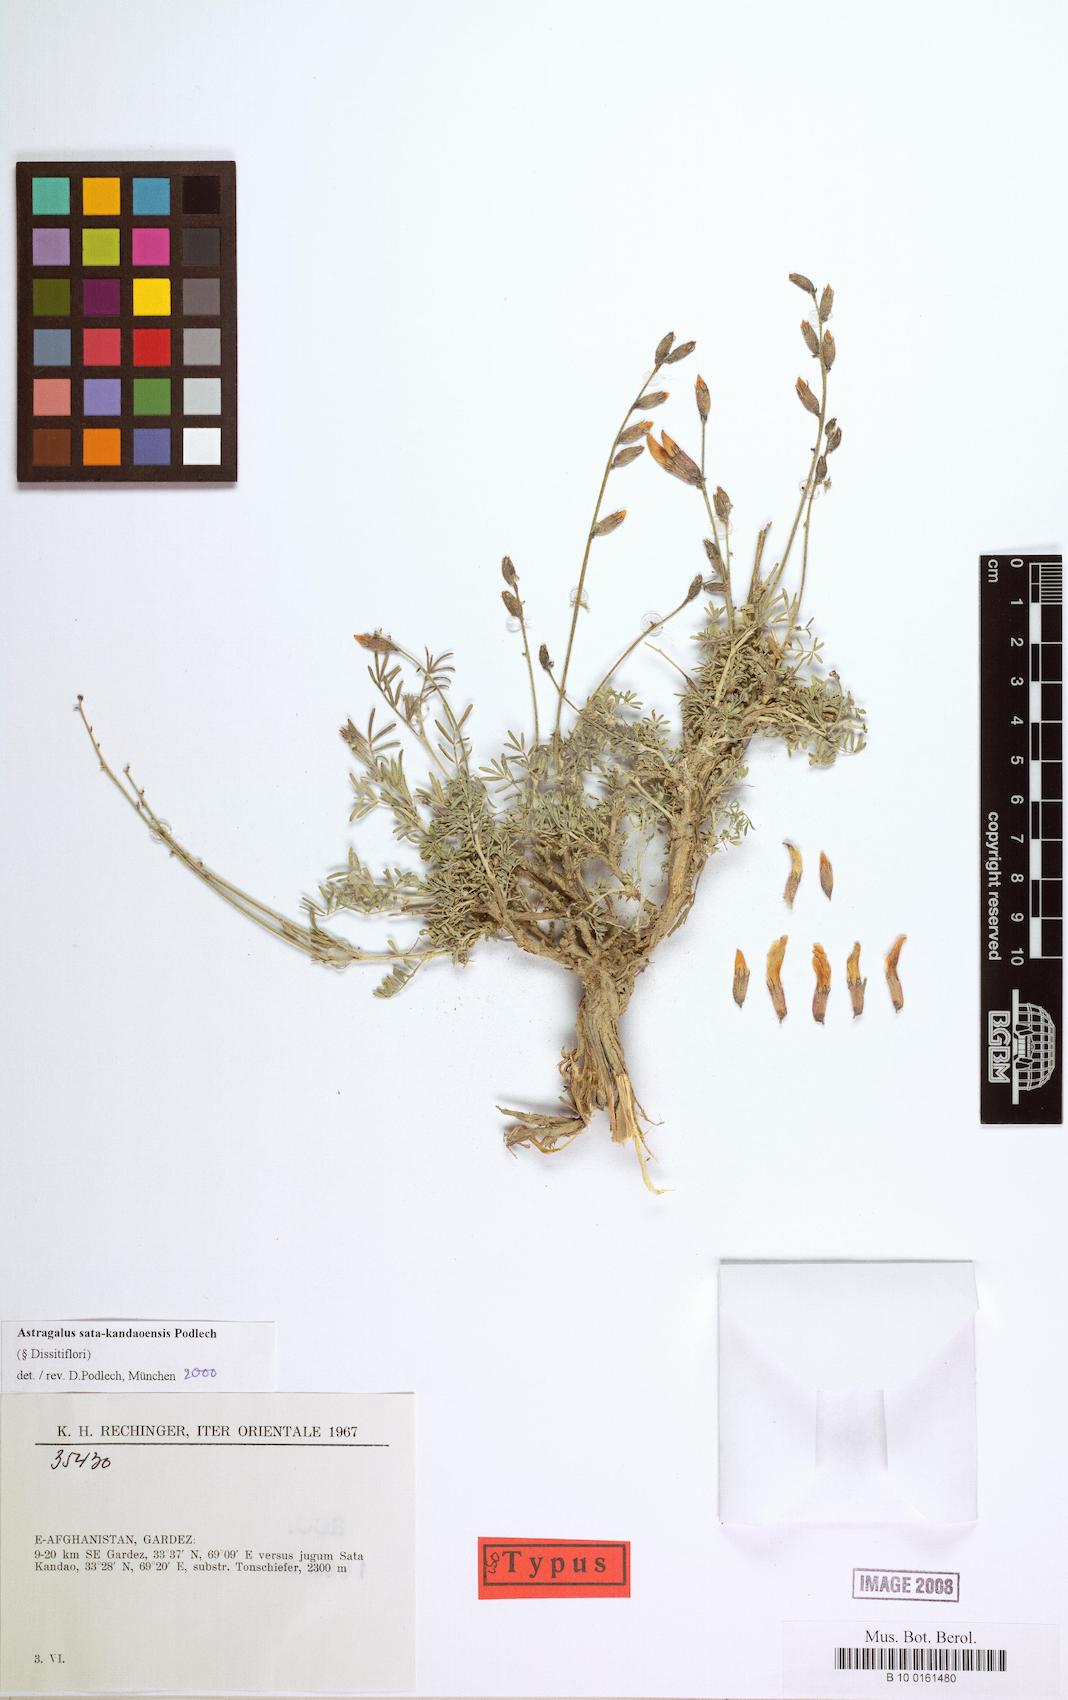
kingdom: Plantae
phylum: Tracheophyta
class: Magnoliopsida
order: Fabales
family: Fabaceae
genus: Astragalus
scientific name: Astragalus sata-kandaoensis
